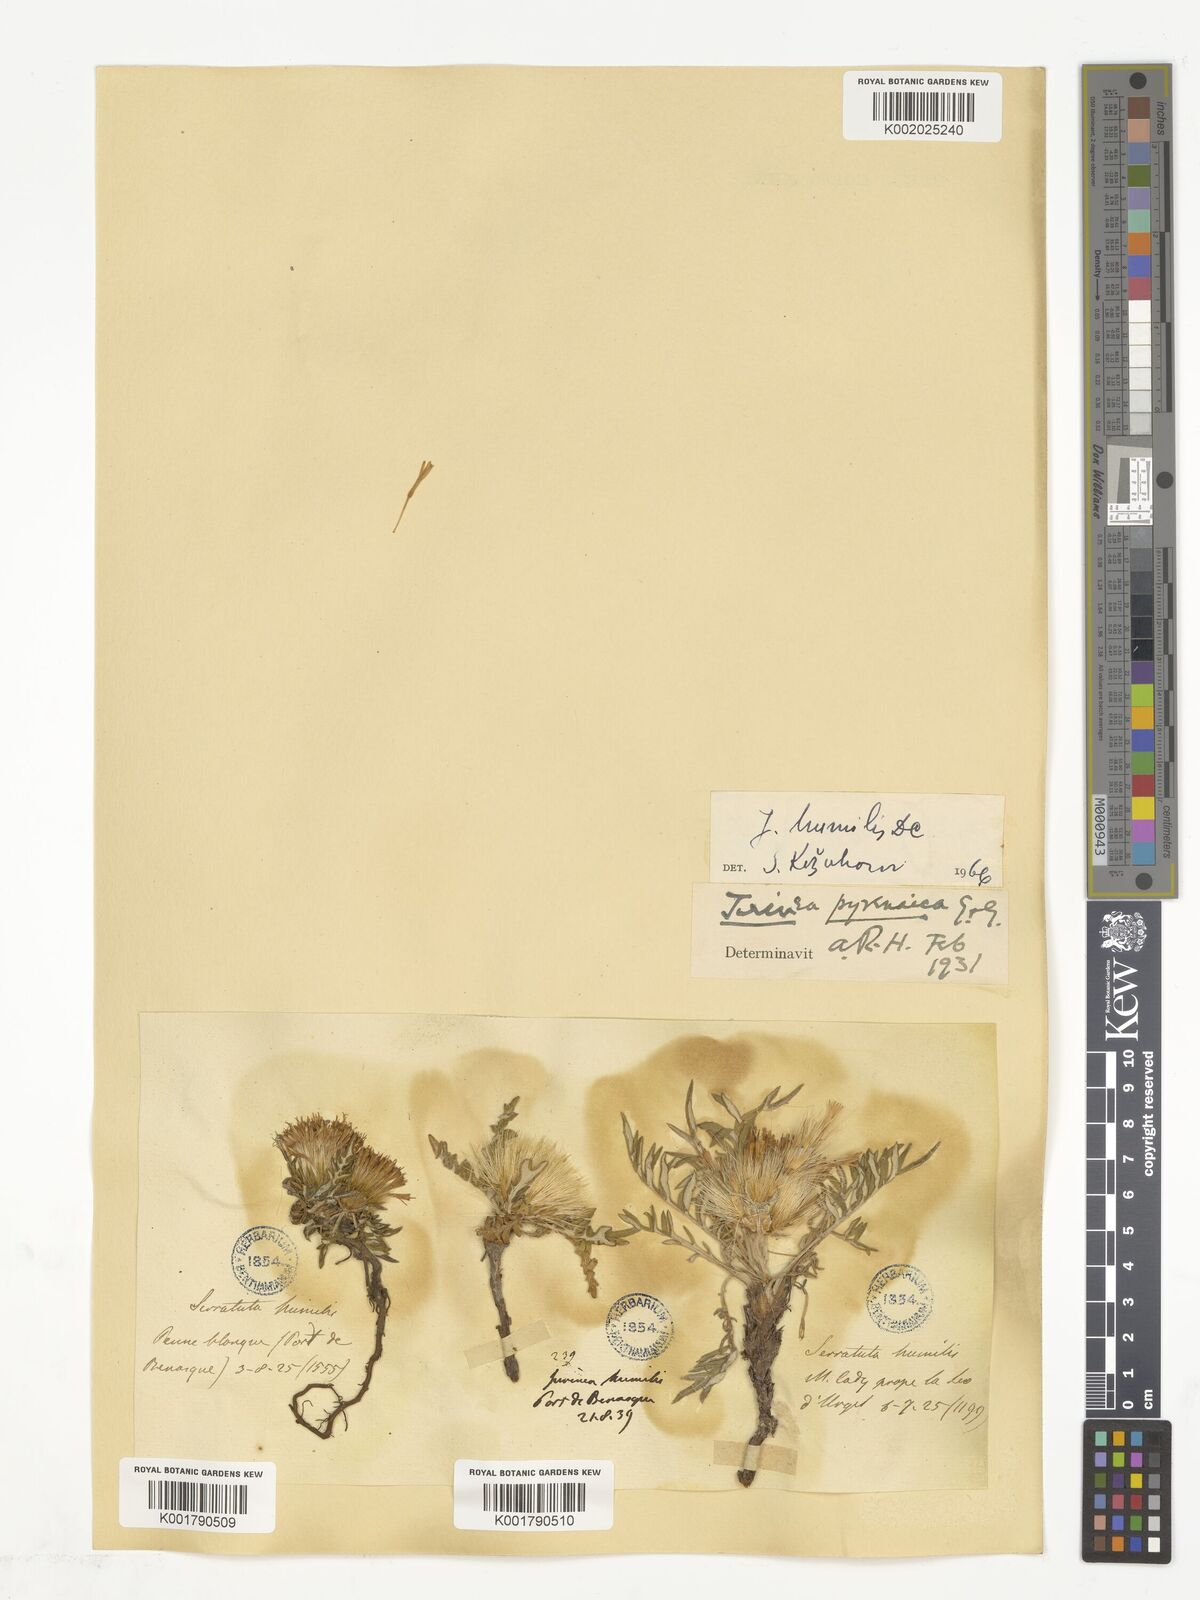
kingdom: Plantae
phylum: Tracheophyta
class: Magnoliopsida
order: Asterales
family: Asteraceae
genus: Jurinea
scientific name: Jurinea humilis
